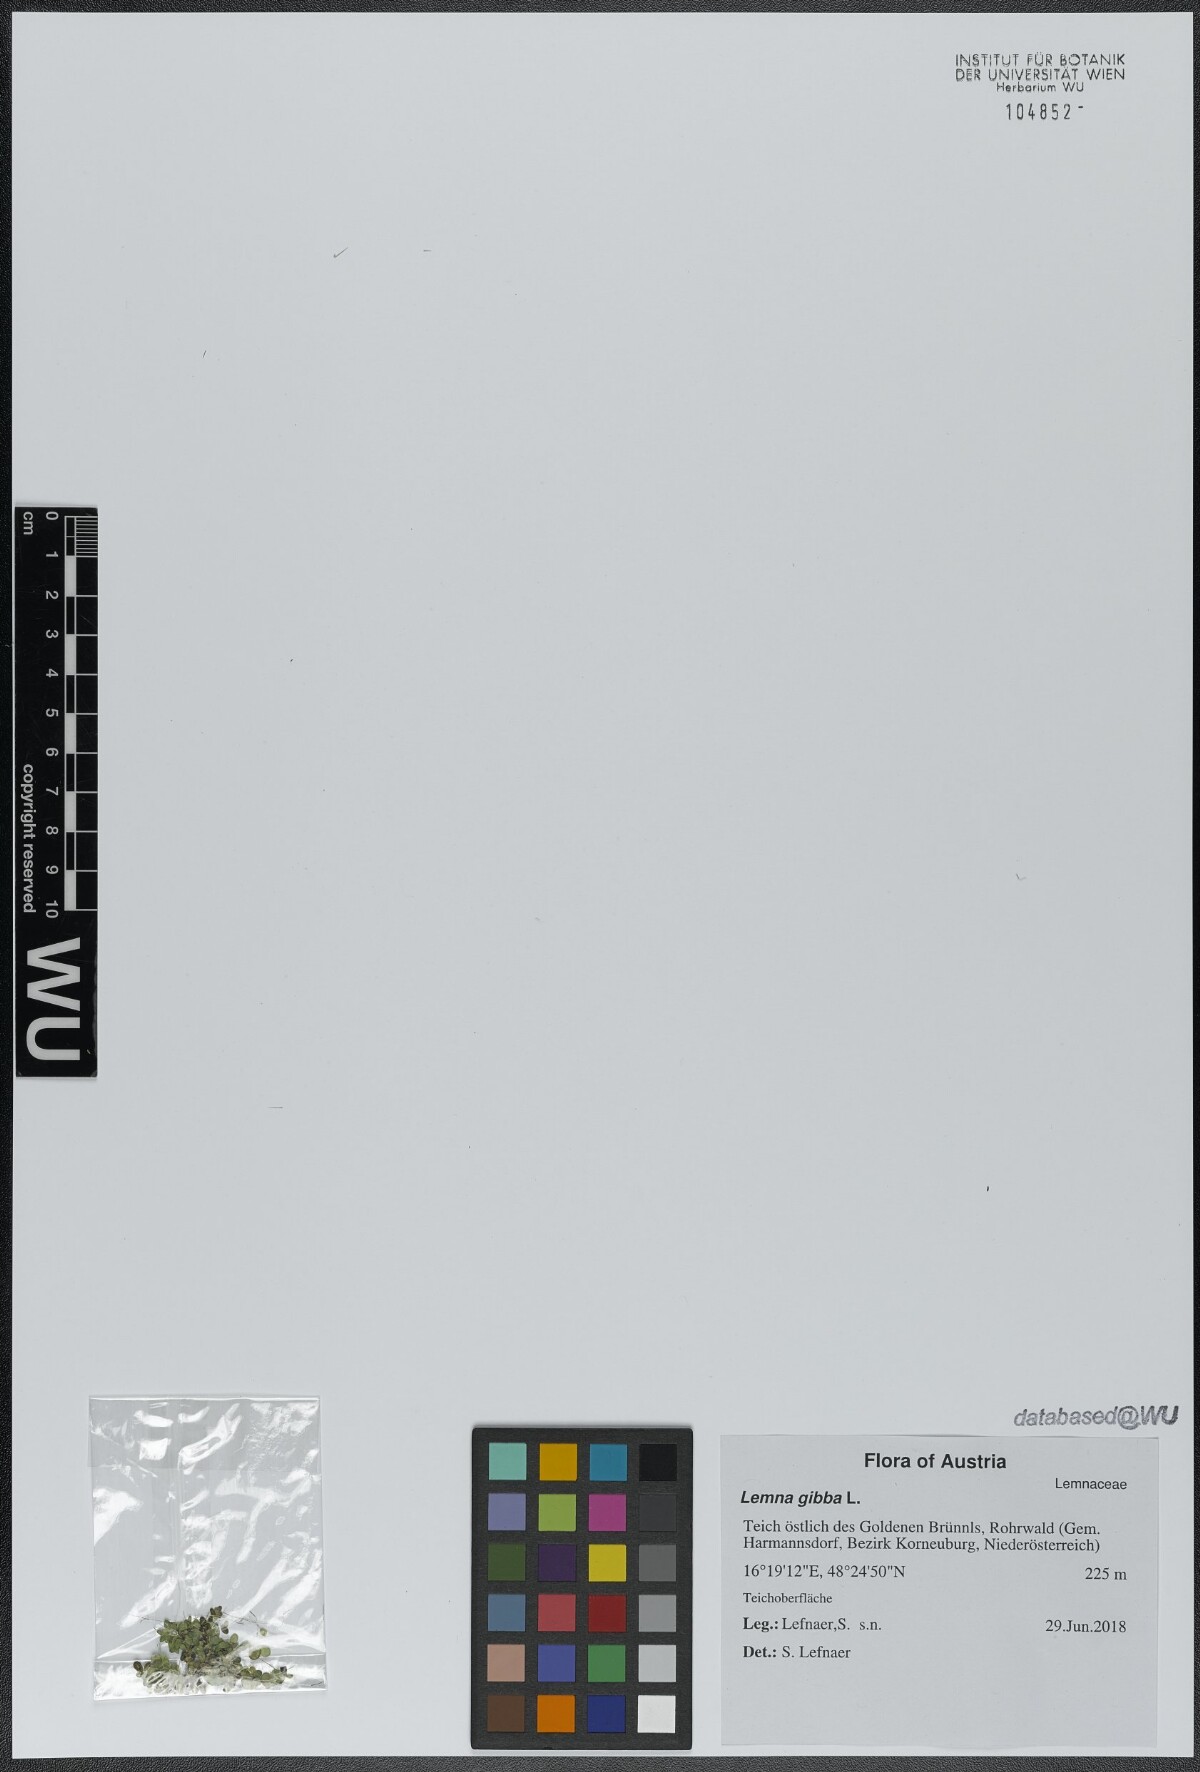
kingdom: Plantae
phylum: Tracheophyta
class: Liliopsida
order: Alismatales
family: Araceae
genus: Lemna
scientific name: Lemna gibba
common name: Fat duckweed
